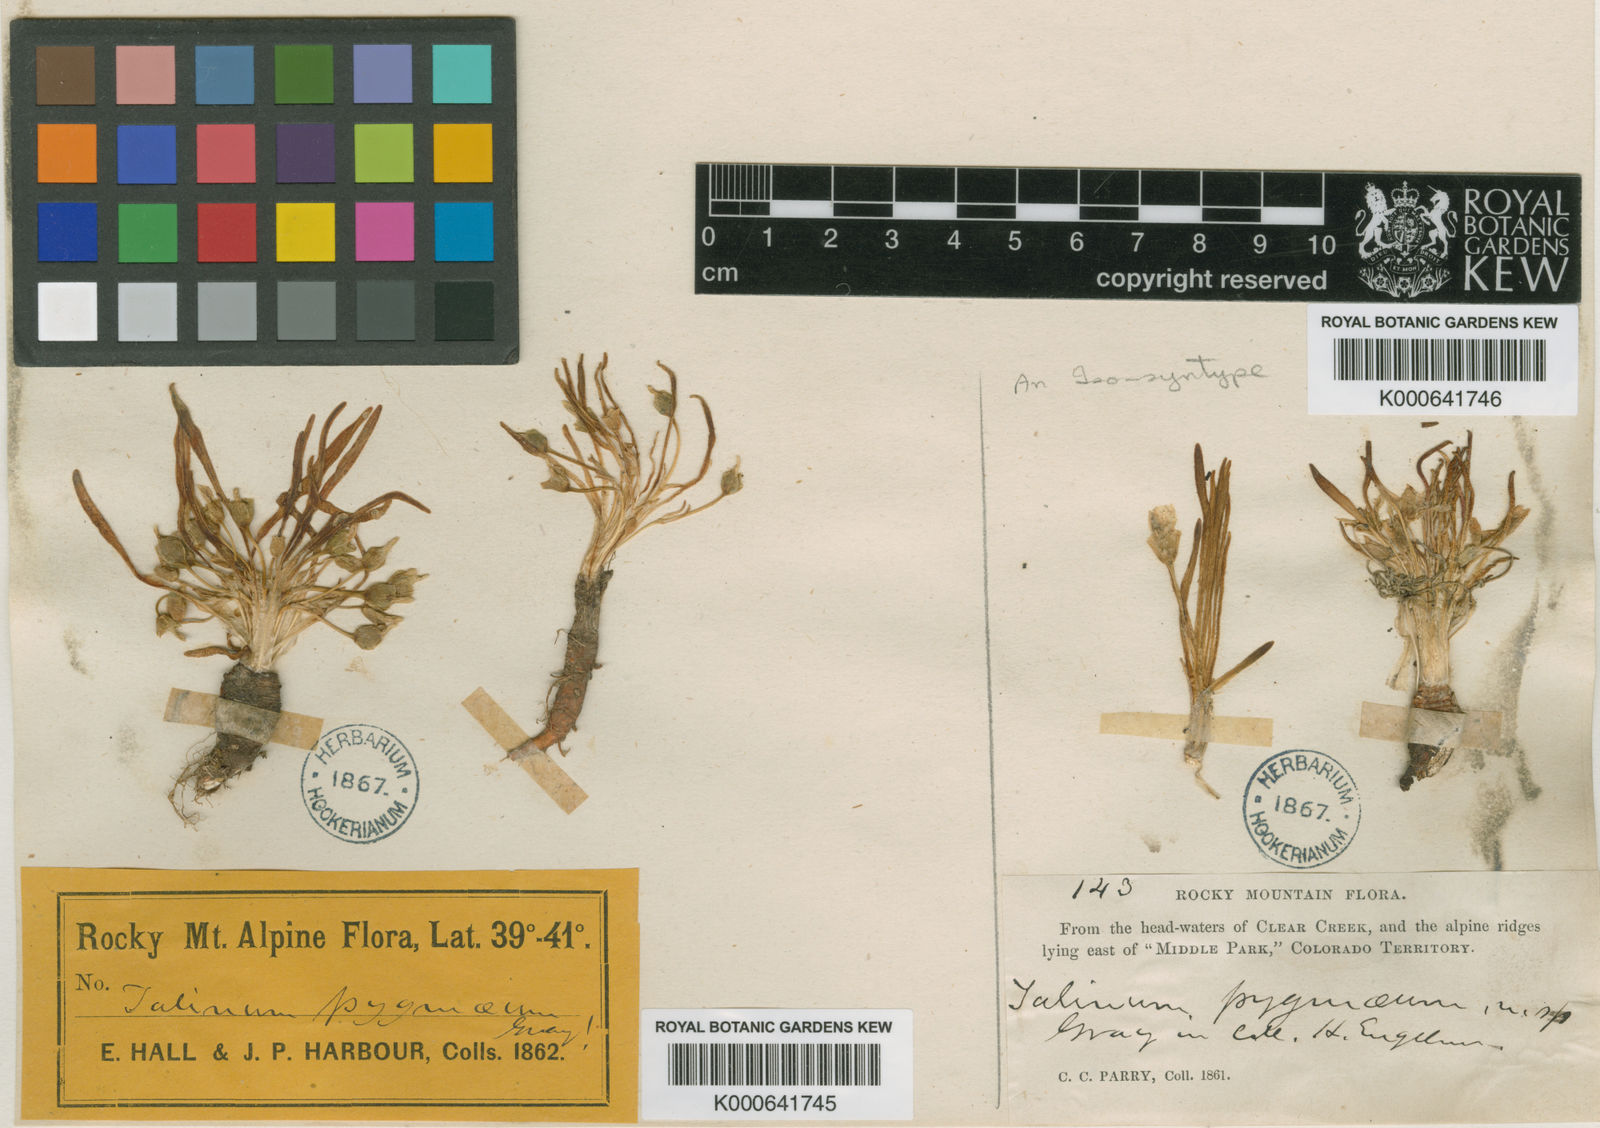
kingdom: Plantae
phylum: Tracheophyta
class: Magnoliopsida
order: Caryophyllales
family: Montiaceae
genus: Lewisia
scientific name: Lewisia pygmaea
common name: Alpine bitterroot
